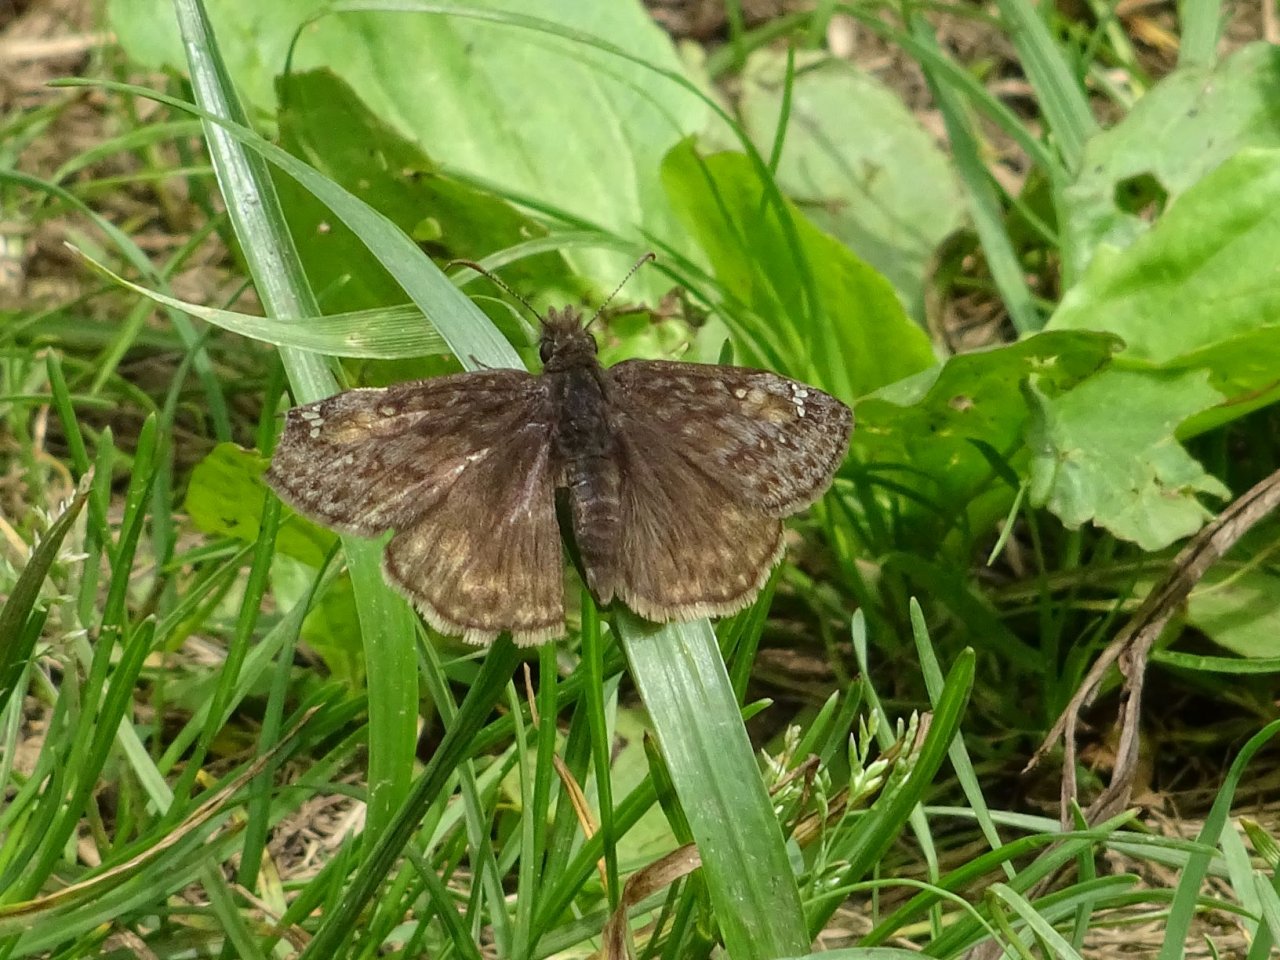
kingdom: Animalia
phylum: Arthropoda
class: Insecta
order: Lepidoptera
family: Hesperiidae
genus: Gesta
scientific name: Gesta
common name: Juvenal's Duskywing
